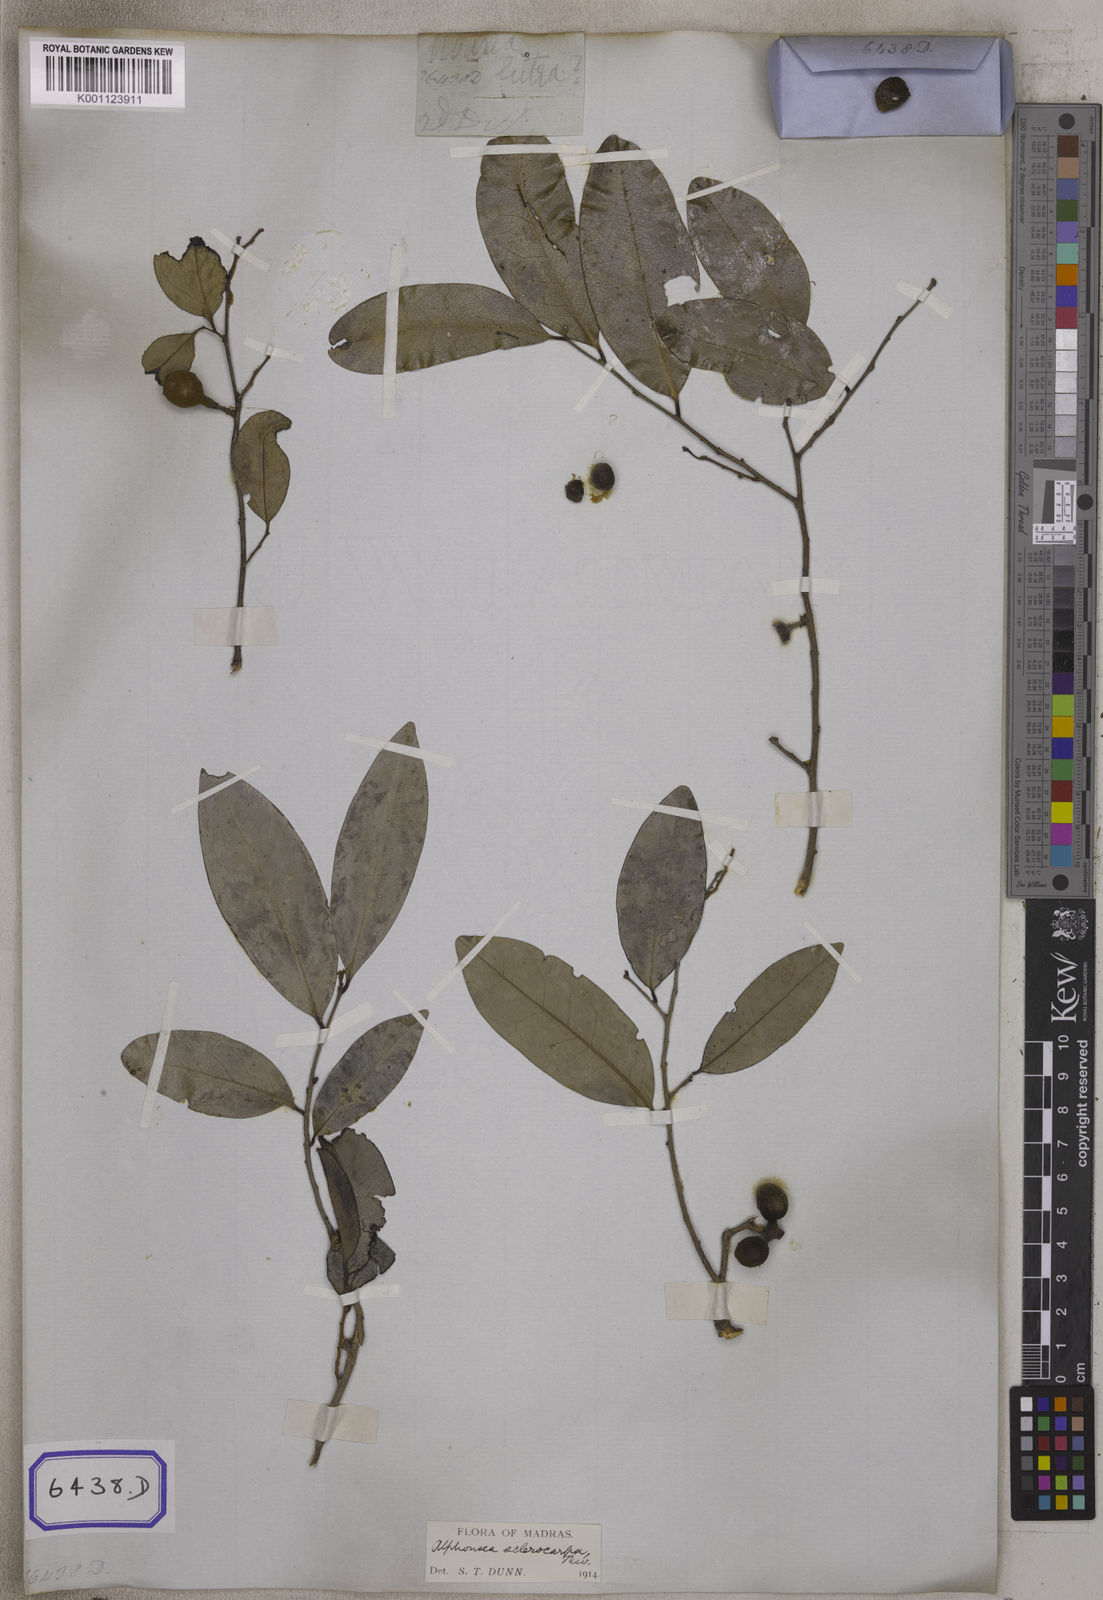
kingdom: Plantae
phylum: Tracheophyta
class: Magnoliopsida
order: Magnoliales
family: Annonaceae
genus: Guatteria
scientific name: Guatteria
